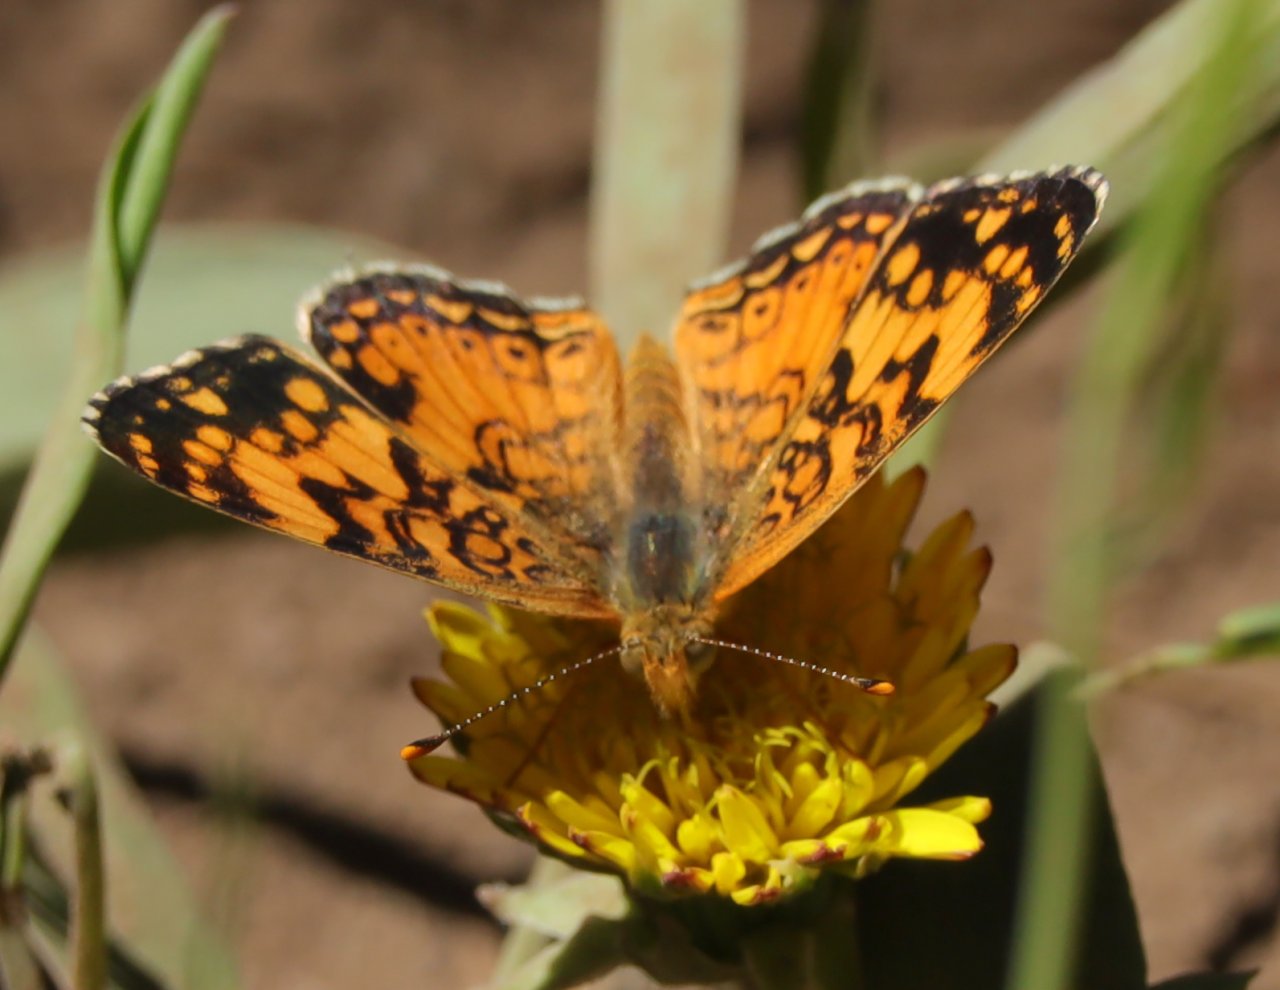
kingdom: Animalia
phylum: Arthropoda
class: Insecta
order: Lepidoptera
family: Nymphalidae
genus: Eresia
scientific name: Eresia aveyrona
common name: Mylitta Crescent
